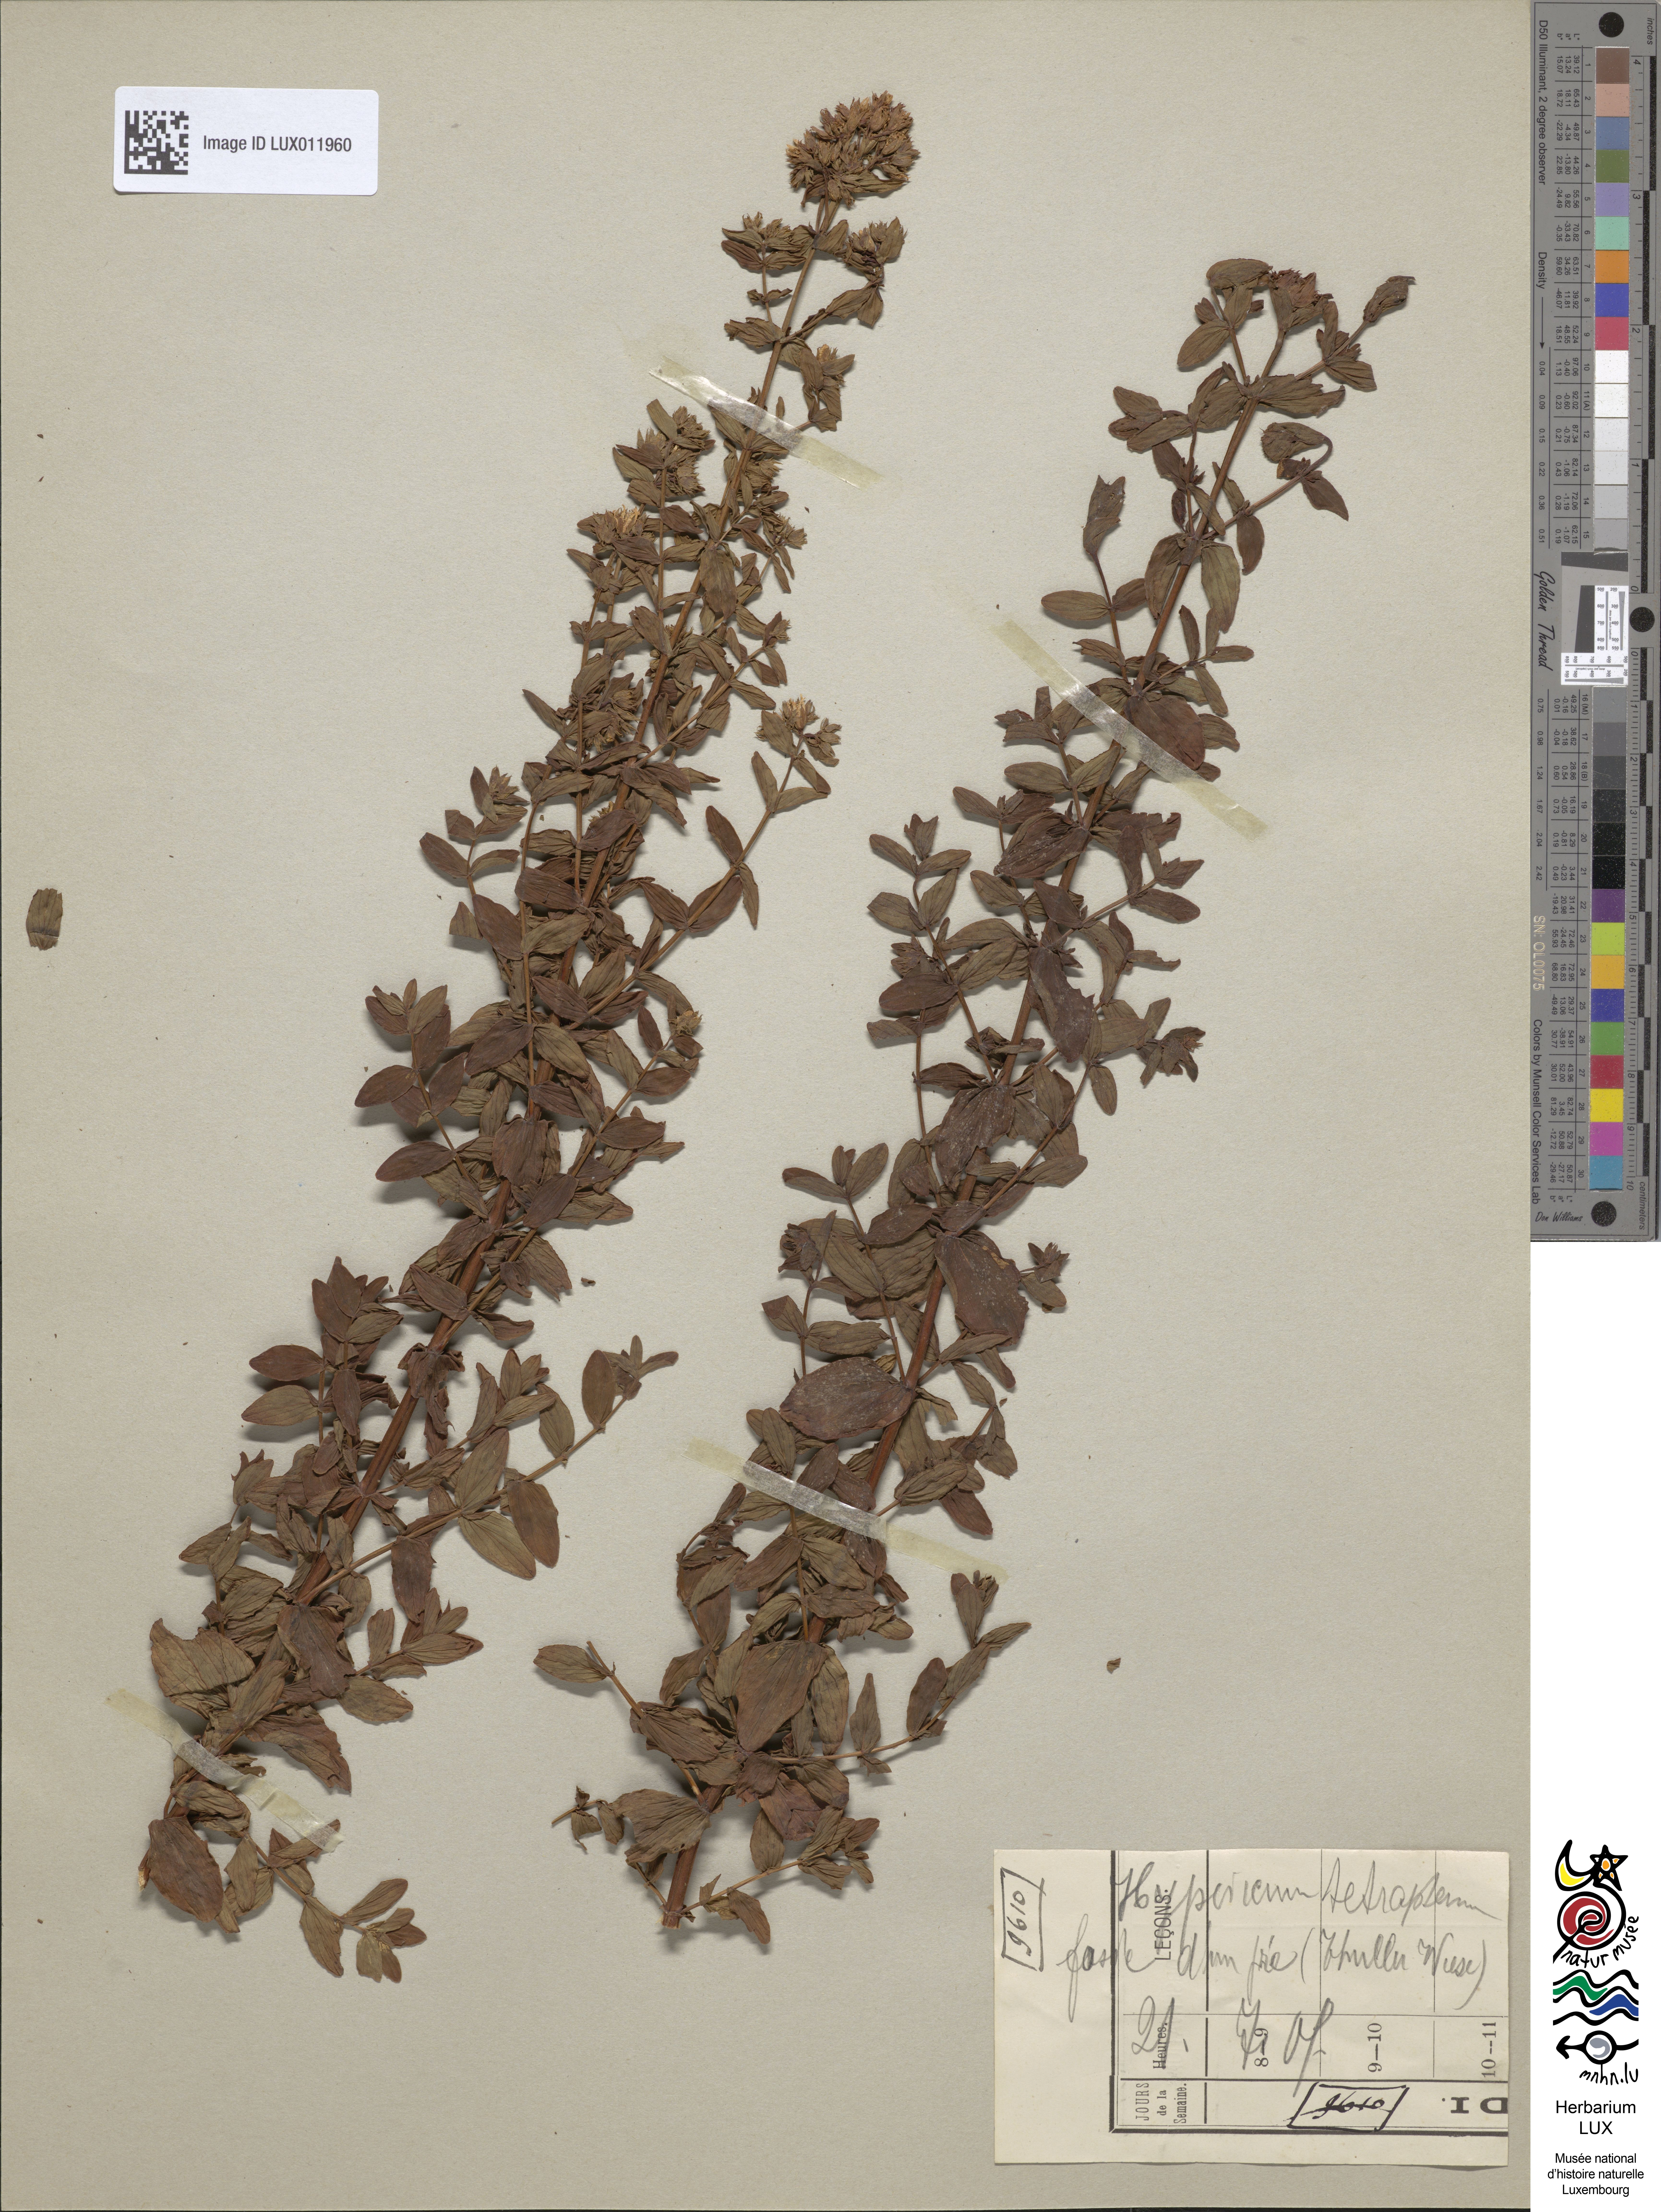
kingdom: Plantae
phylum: Tracheophyta
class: Magnoliopsida
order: Malpighiales
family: Hypericaceae
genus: Hypericum
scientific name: Hypericum tetrapterum
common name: Square-stalked st. john's-wort
